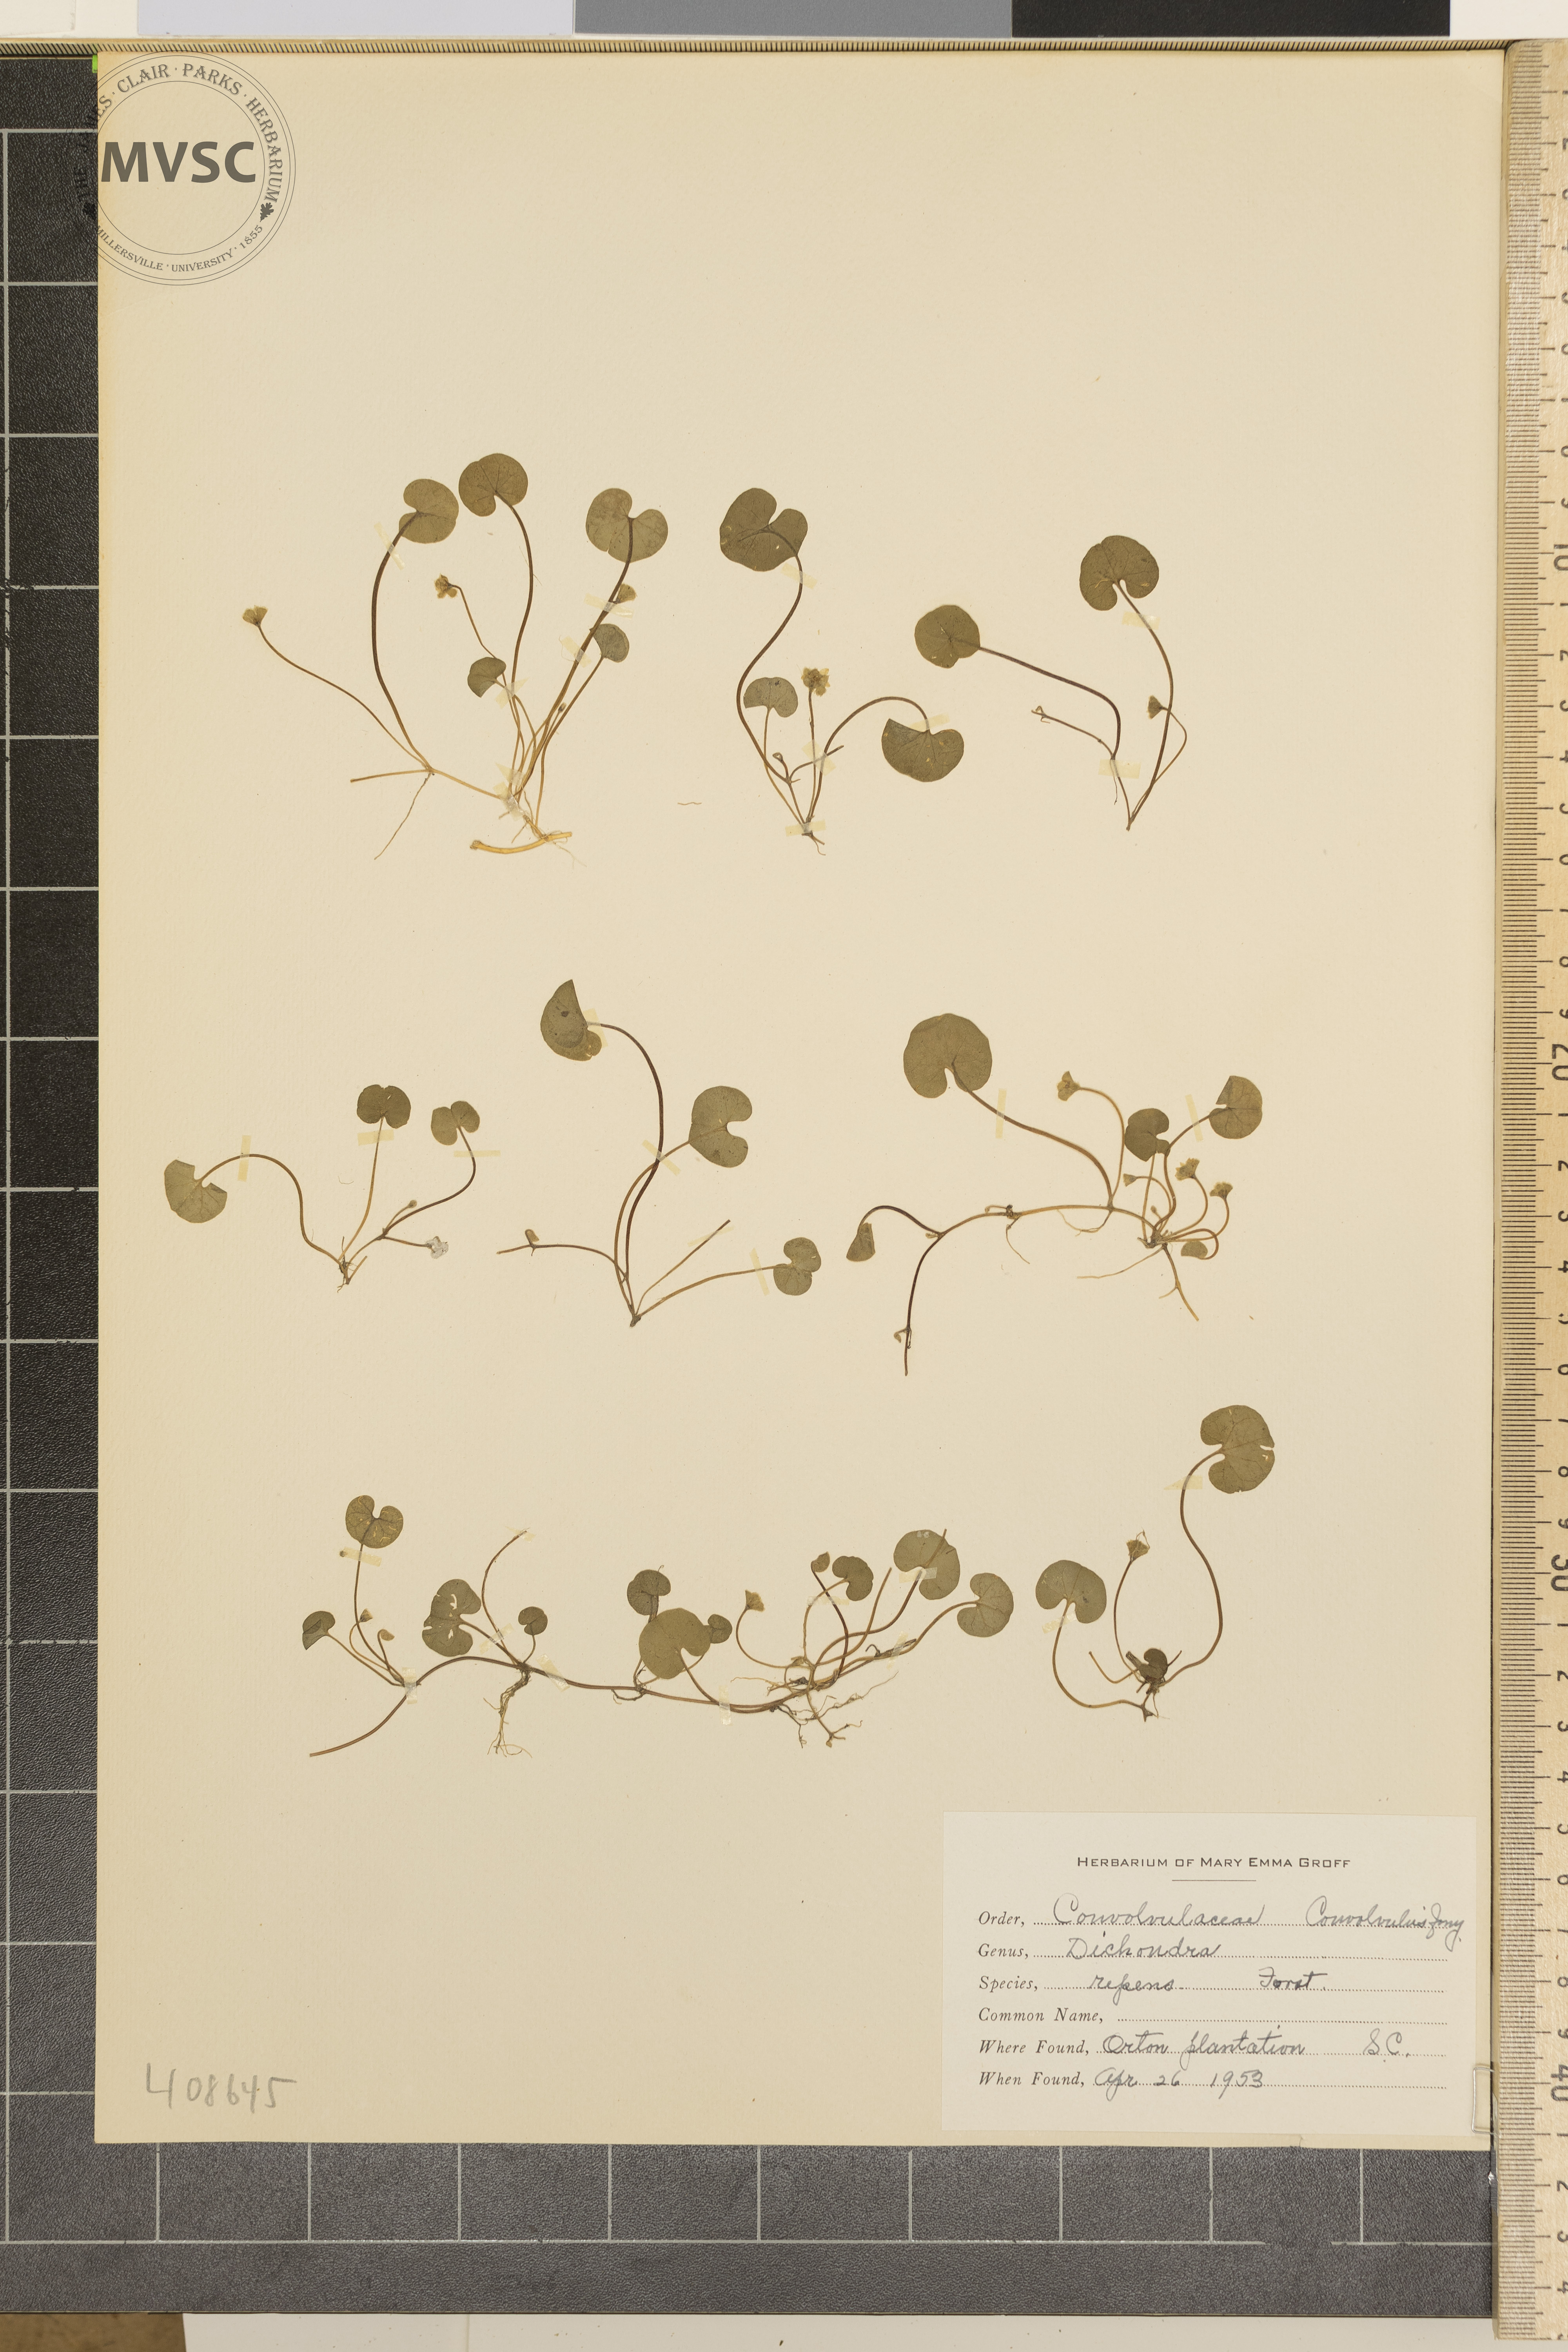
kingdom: Plantae
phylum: Tracheophyta
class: Magnoliopsida
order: Solanales
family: Convolvulaceae
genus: Dichondra
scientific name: Dichondra repens
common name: Kidneyweed
